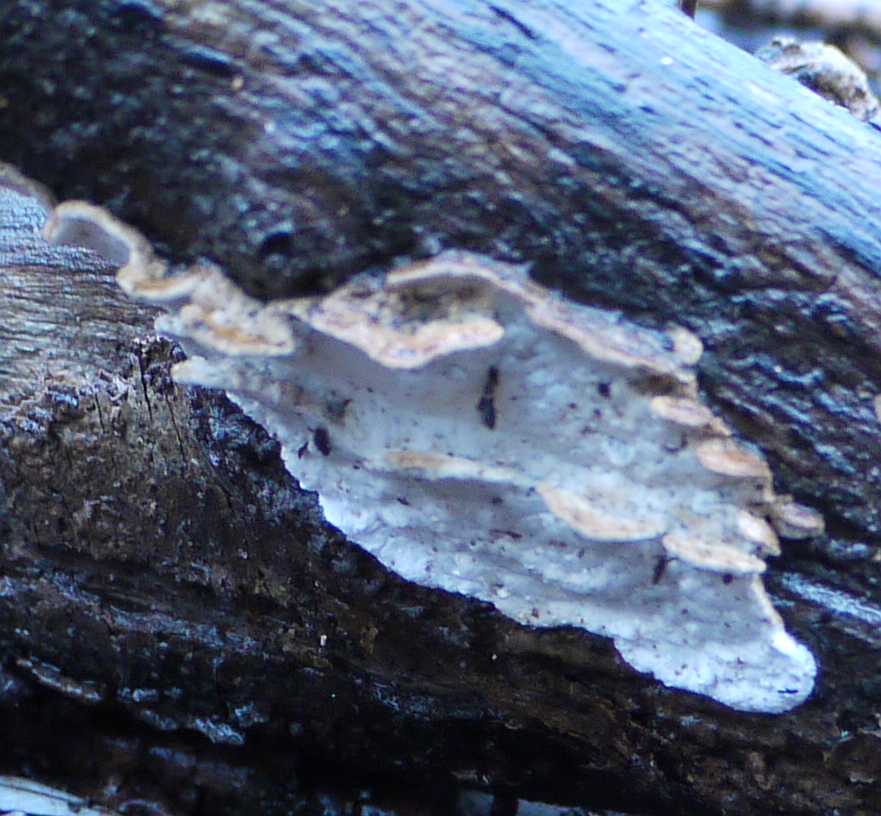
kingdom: Fungi
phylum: Basidiomycota
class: Agaricomycetes
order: Polyporales
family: Incrustoporiaceae
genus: Skeletocutis
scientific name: Skeletocutis nemoralis
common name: stor krystalporesvamp
